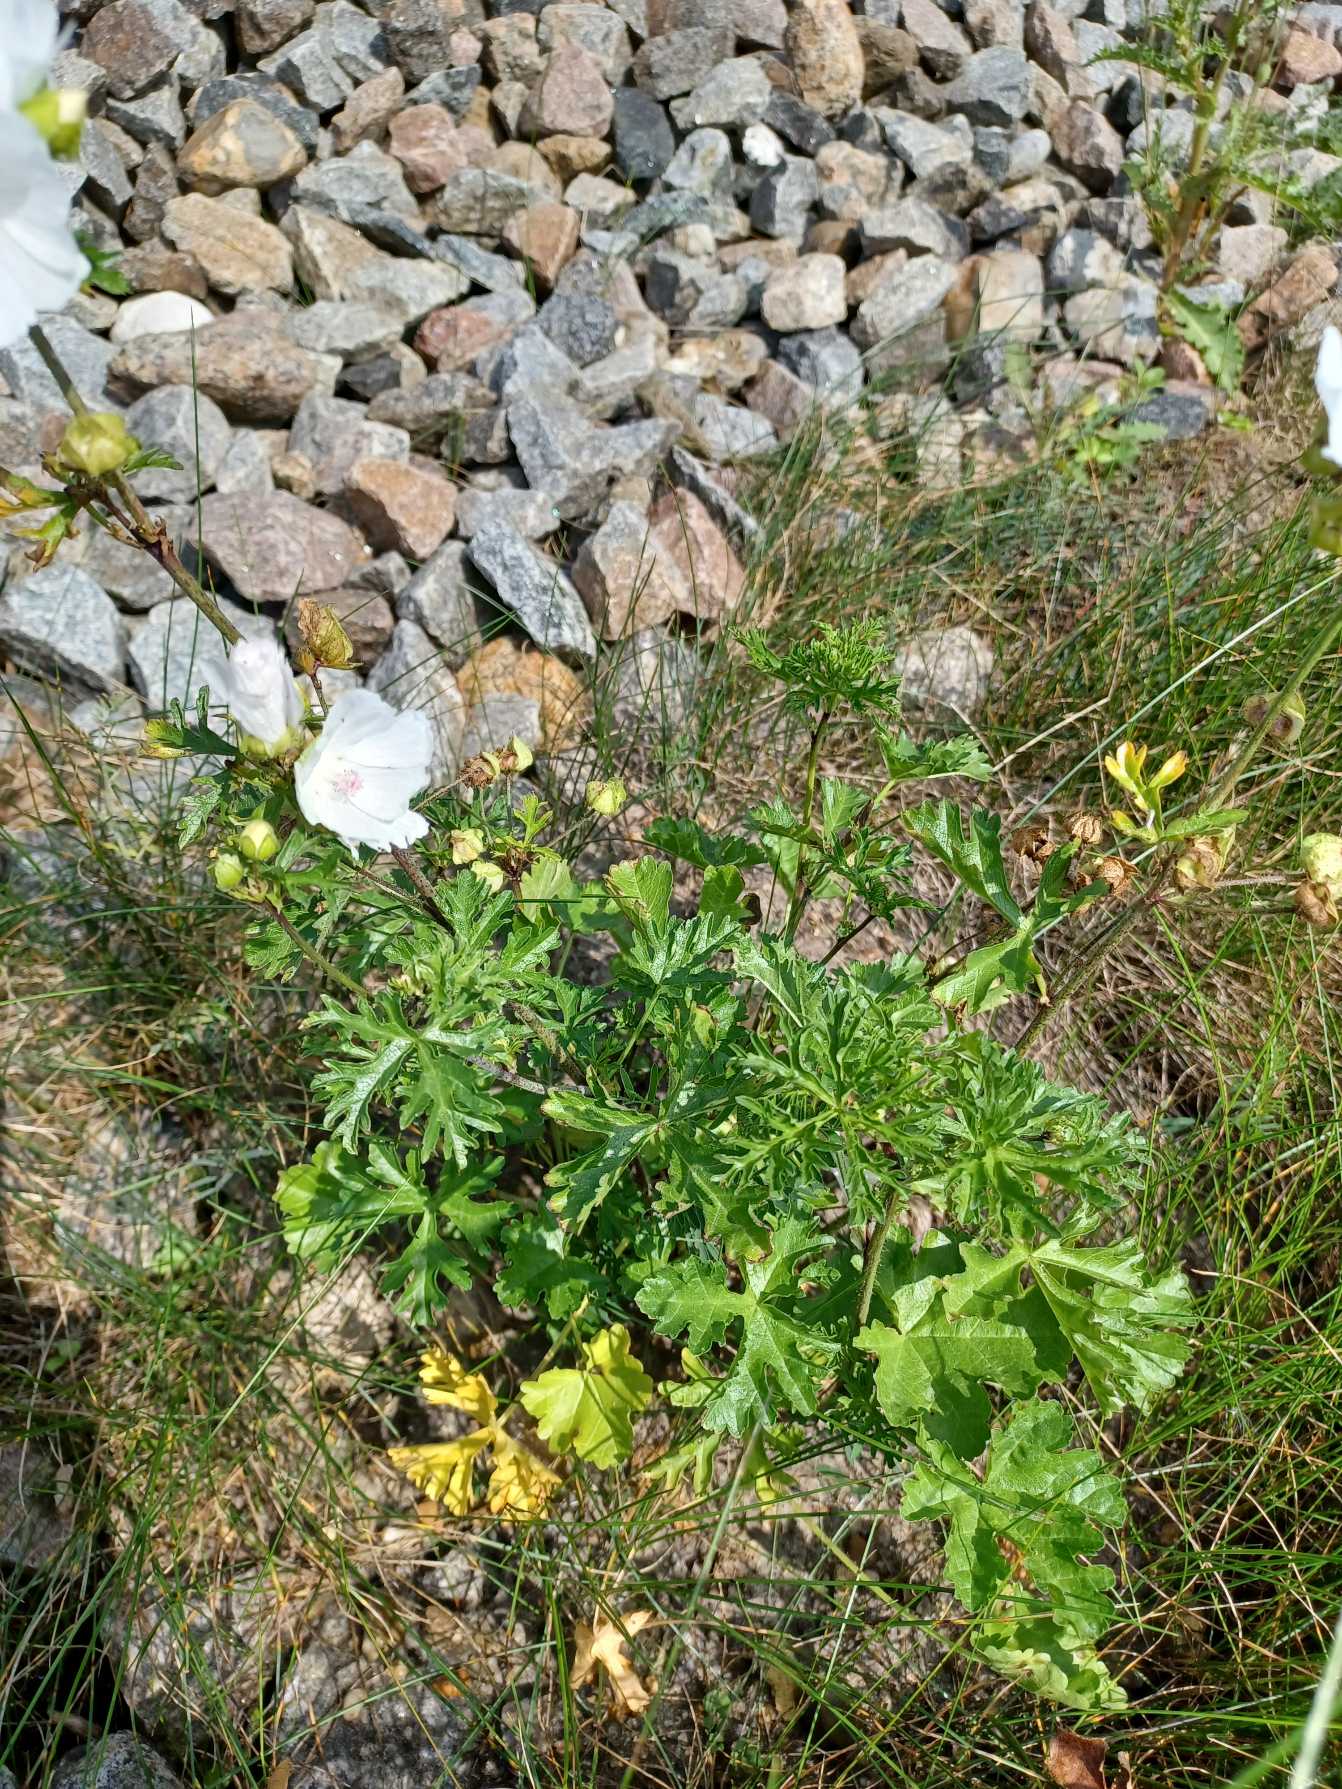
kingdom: Plantae
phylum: Tracheophyta
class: Magnoliopsida
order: Malvales
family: Malvaceae
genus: Malva
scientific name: Malva moschata
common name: Moskus-katost
